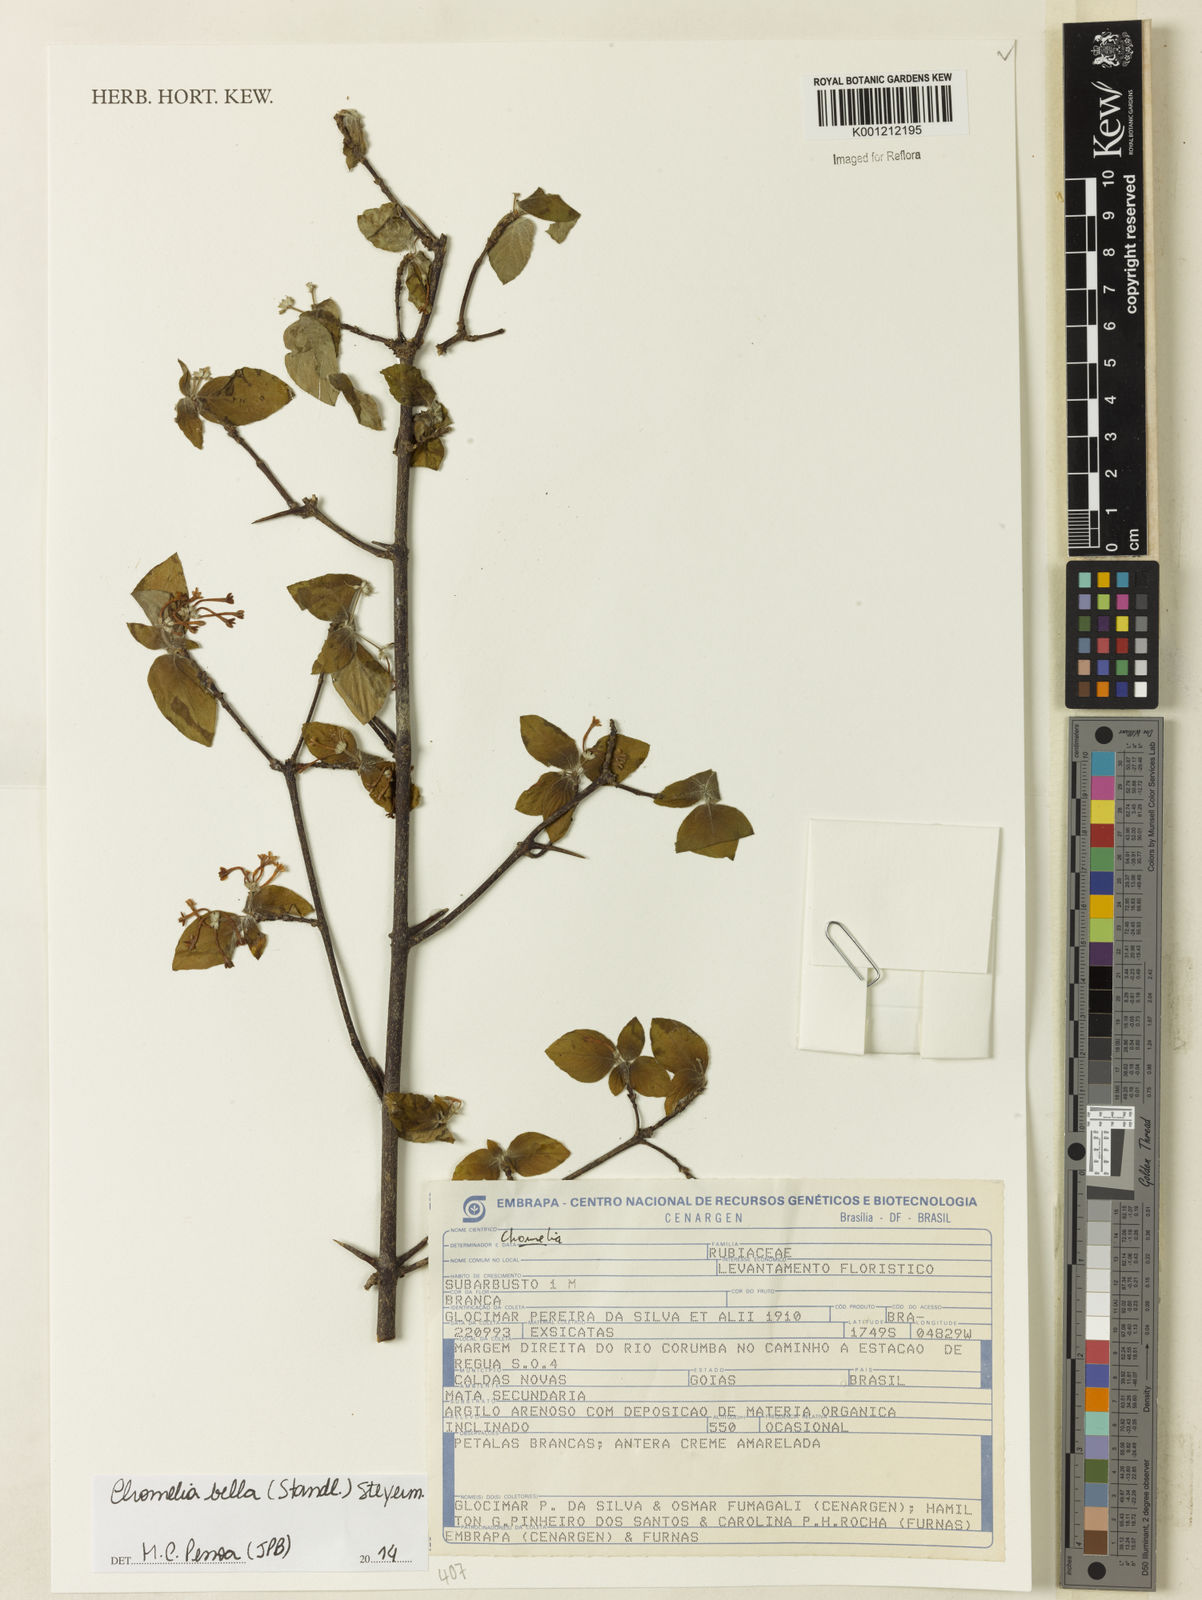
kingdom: Plantae
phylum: Tracheophyta
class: Magnoliopsida
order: Gentianales
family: Rubiaceae
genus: Chomelia
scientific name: Chomelia bella
